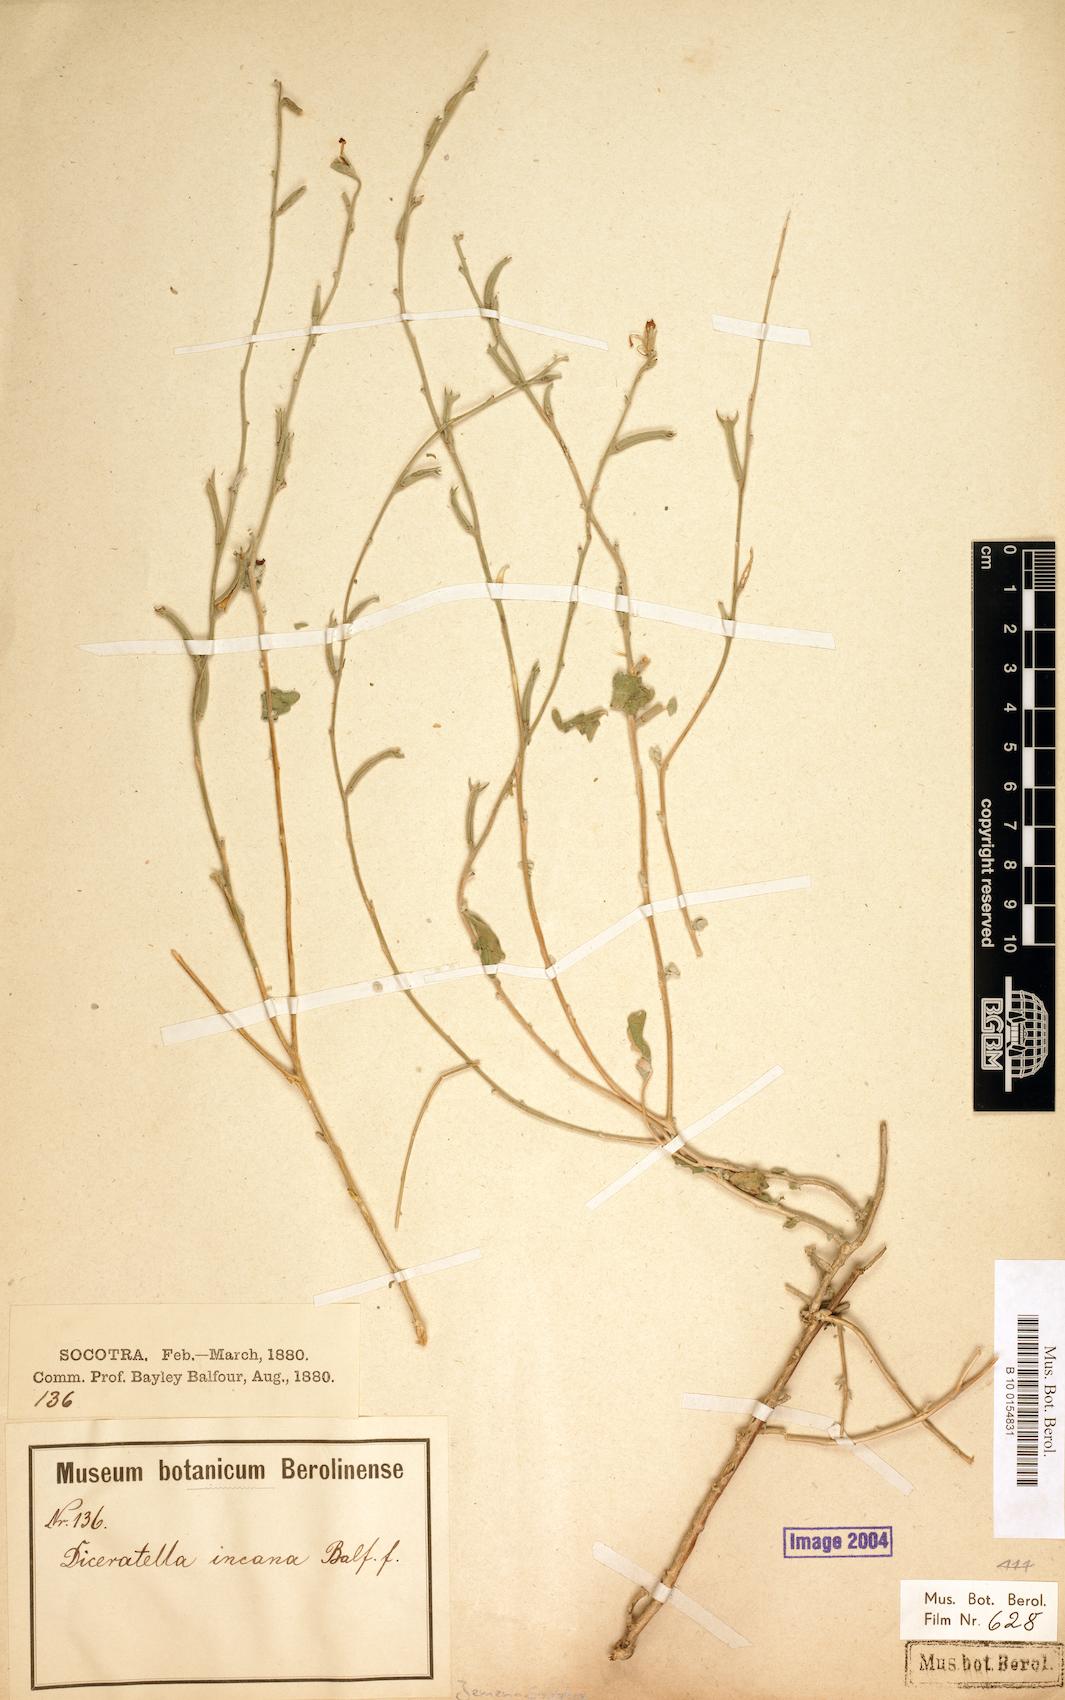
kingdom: Plantae
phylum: Tracheophyta
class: Magnoliopsida
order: Brassicales
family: Brassicaceae
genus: Diceratella
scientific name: Diceratella incana
